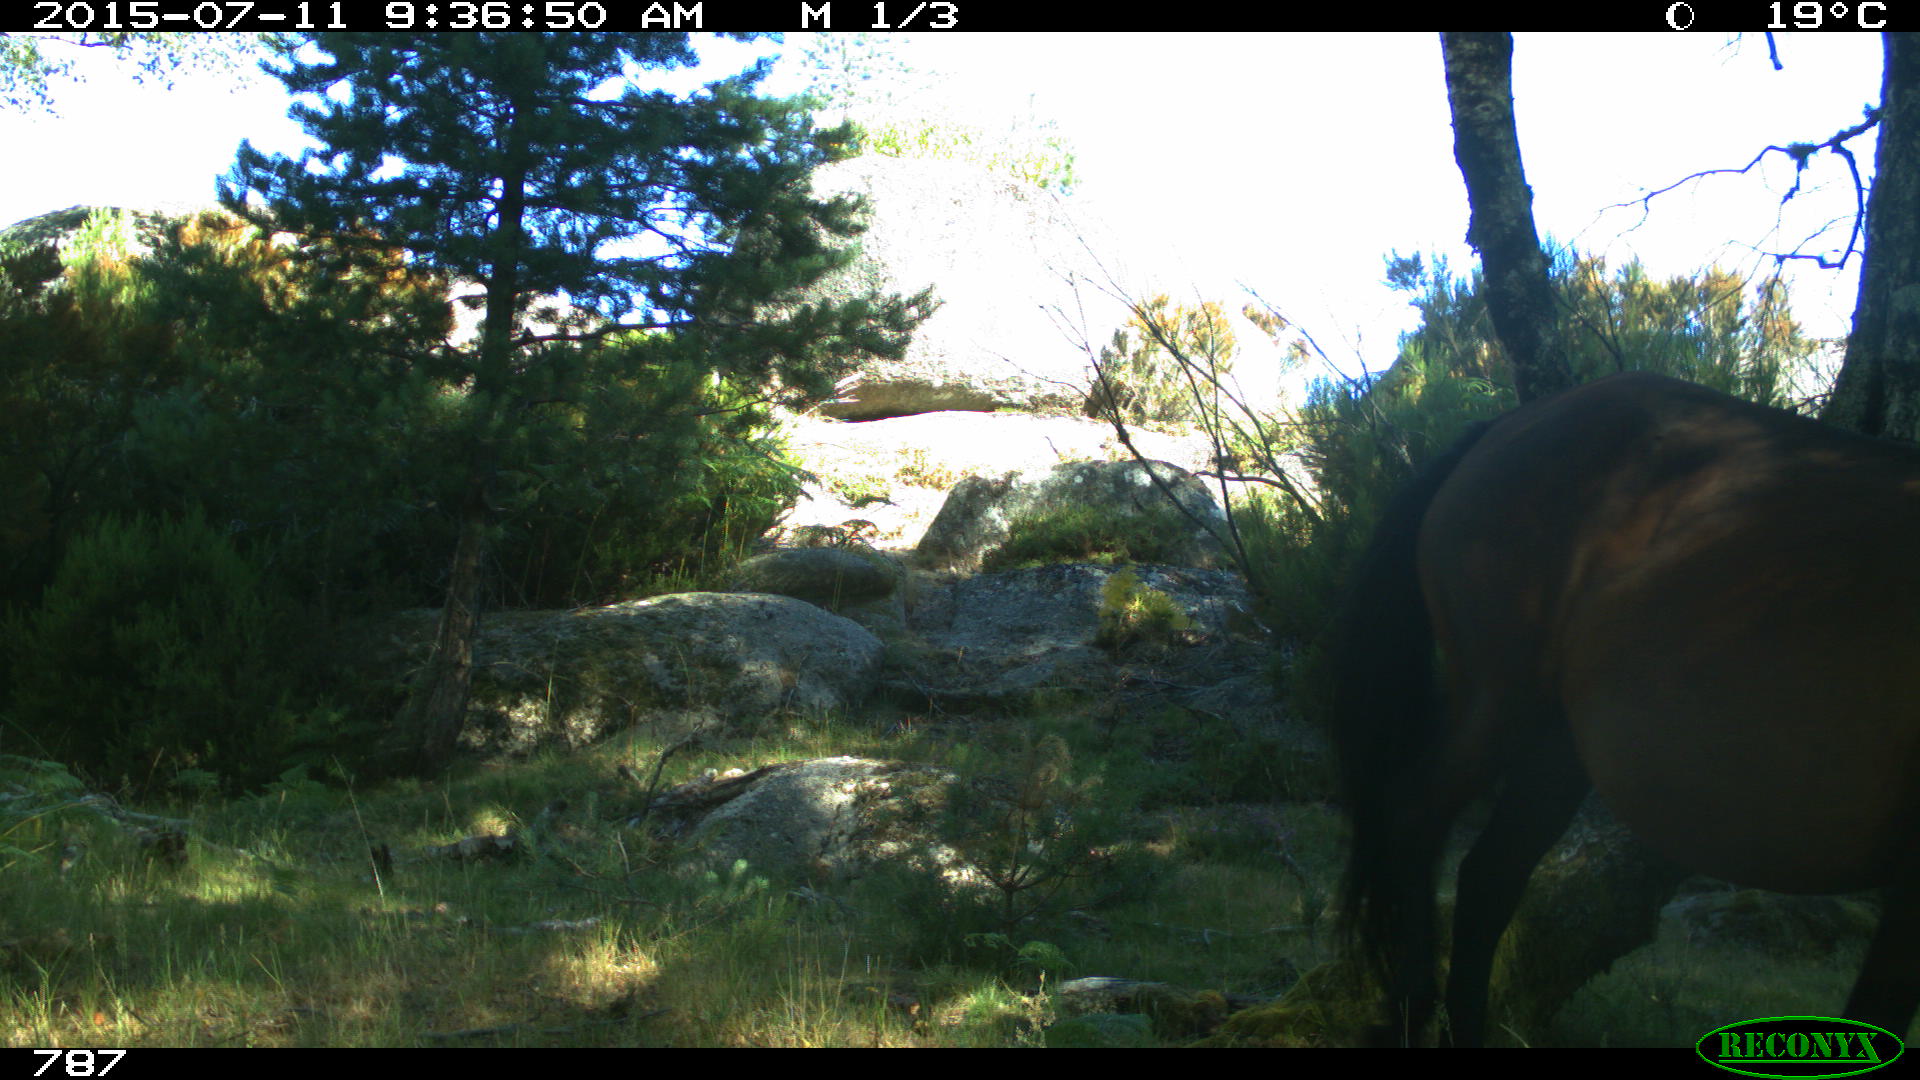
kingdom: Animalia
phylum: Chordata
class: Mammalia
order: Perissodactyla
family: Equidae
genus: Equus
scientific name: Equus caballus
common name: Horse
